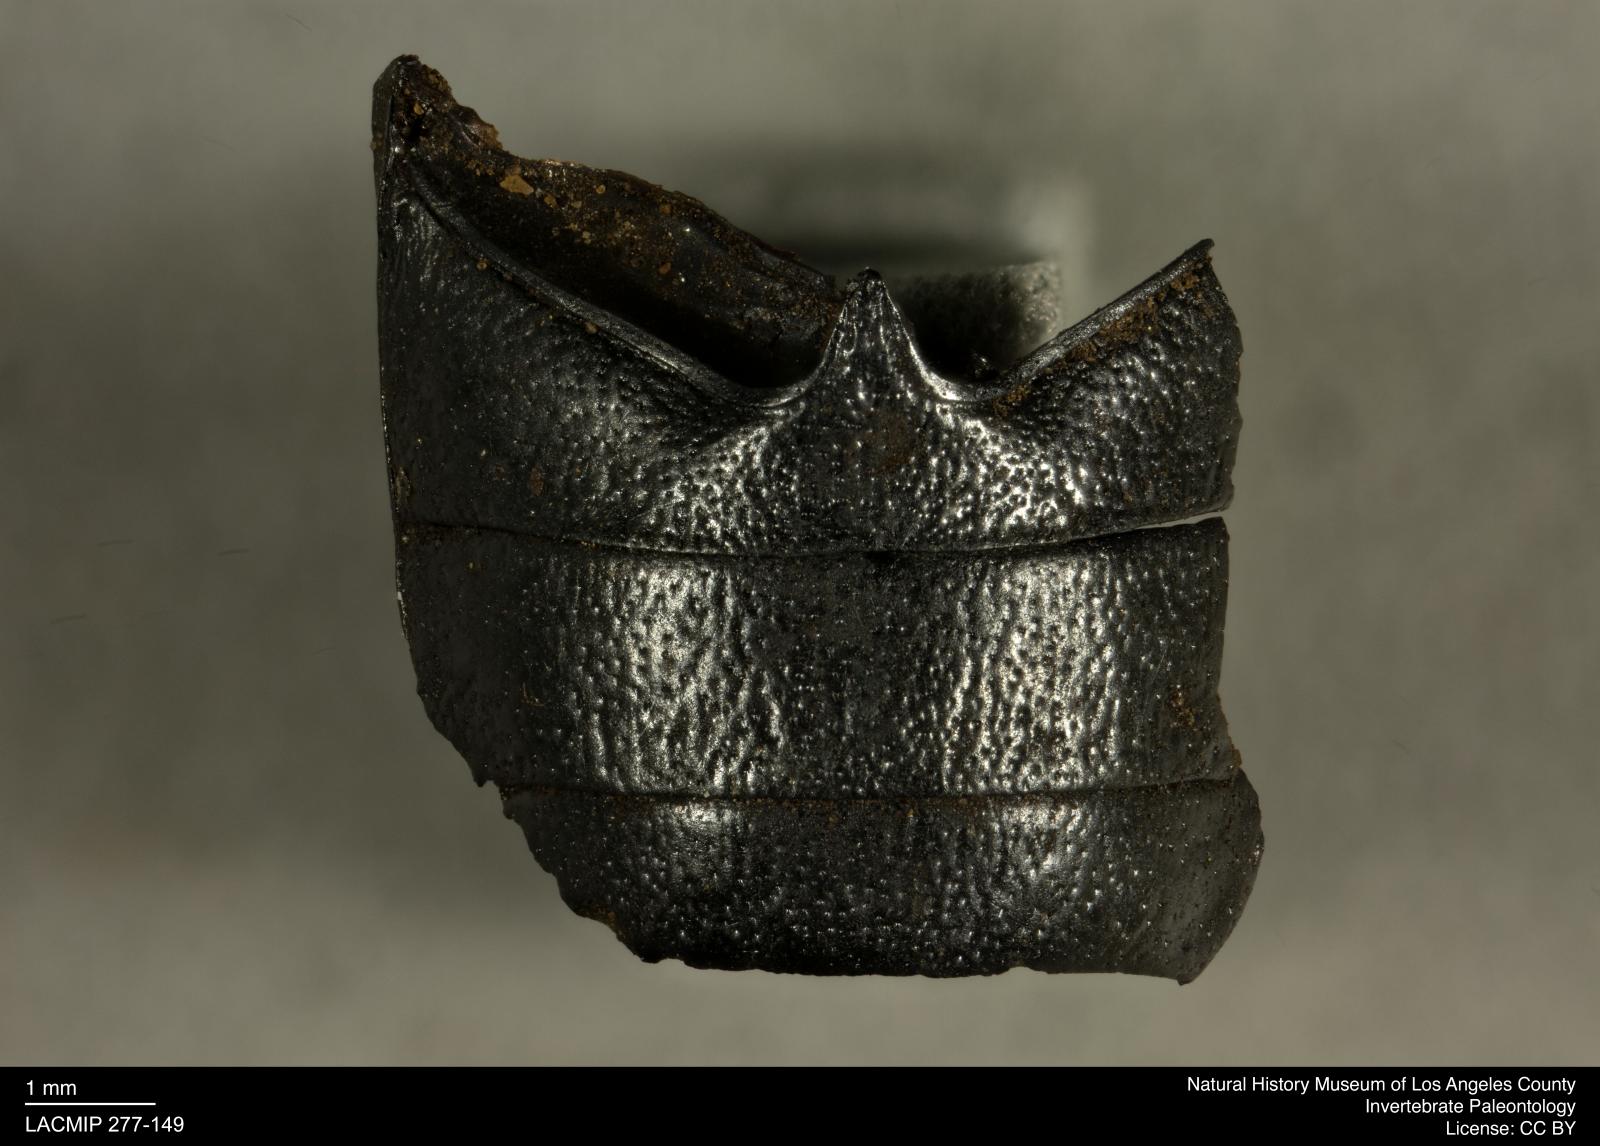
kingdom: Animalia
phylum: Arthropoda
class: Insecta
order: Coleoptera
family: Tenebrionidae
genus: Coniontis
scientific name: Coniontis abdominalis
